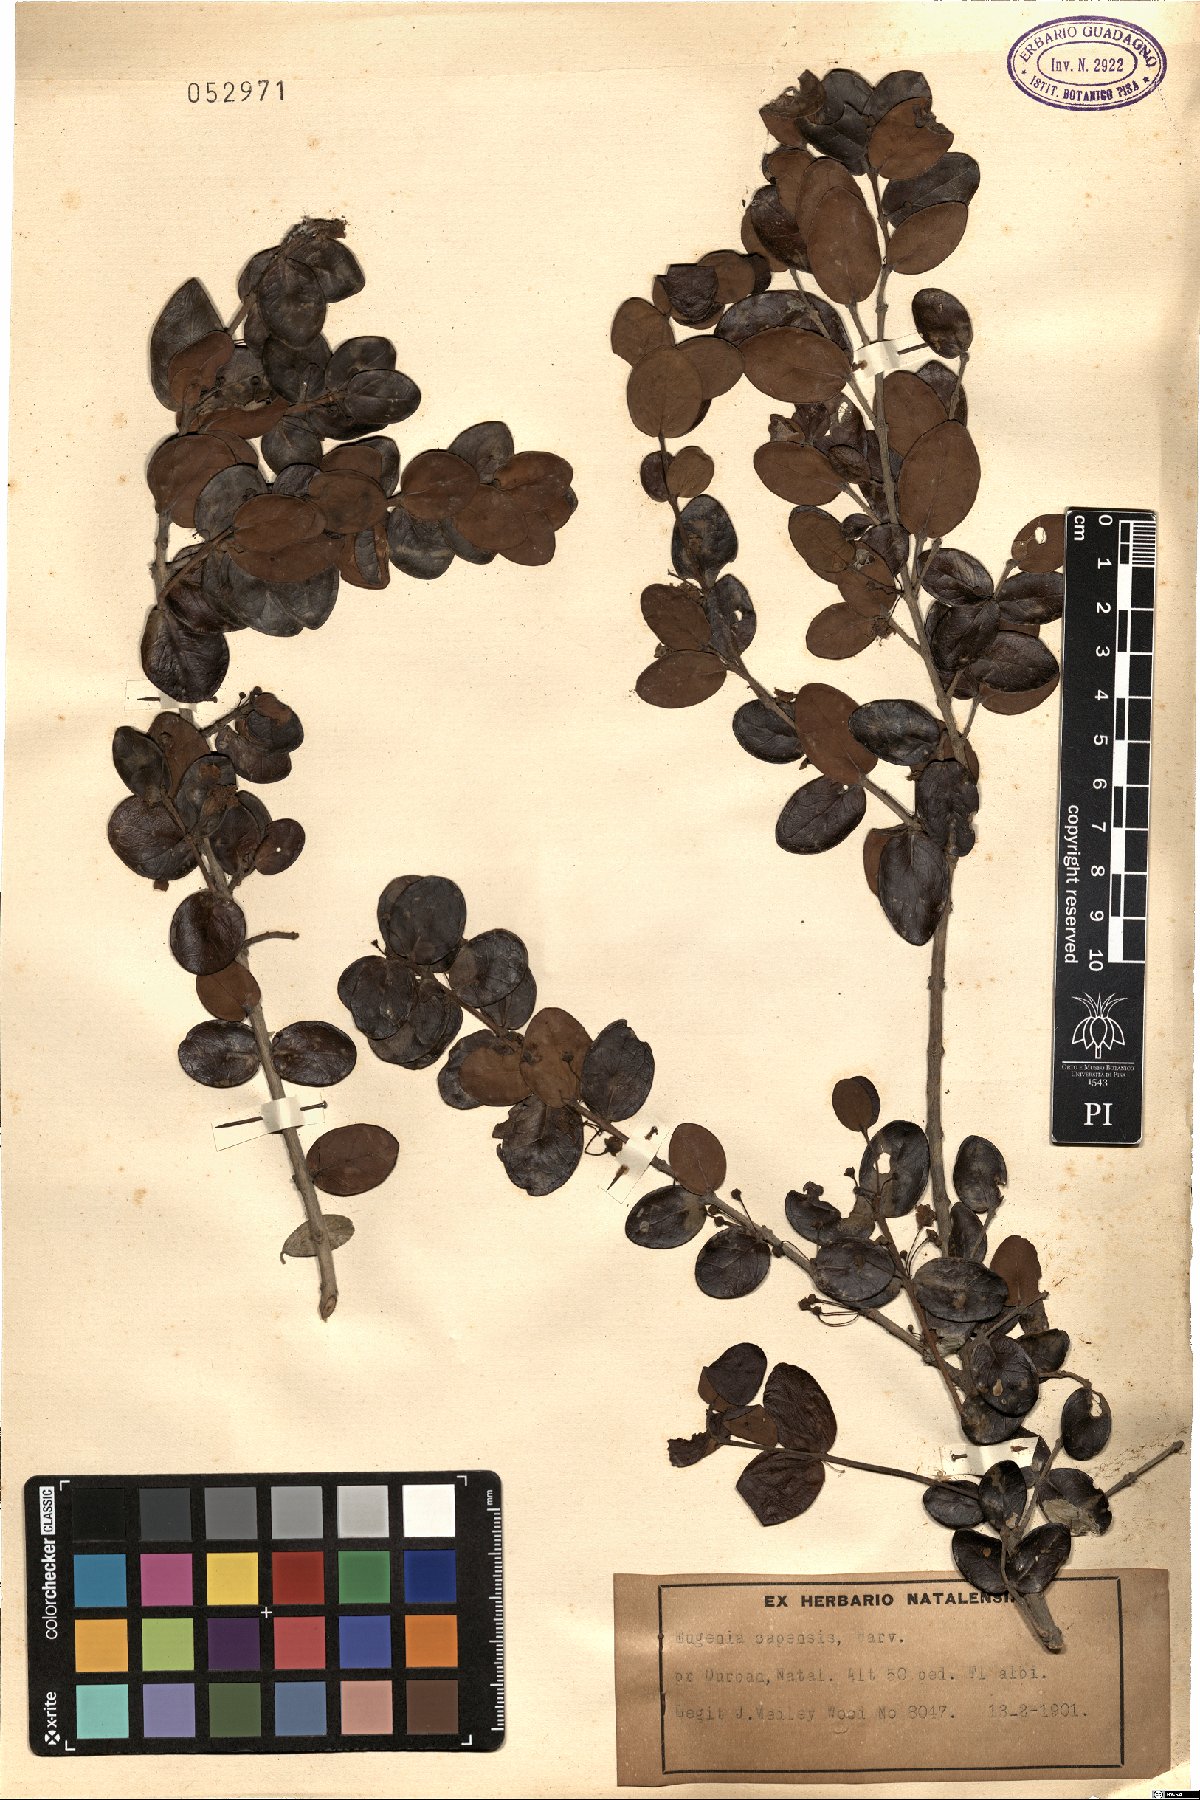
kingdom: Plantae
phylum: Tracheophyta
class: Magnoliopsida
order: Myrtales
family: Myrtaceae
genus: Eugenia
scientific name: Eugenia capensis
